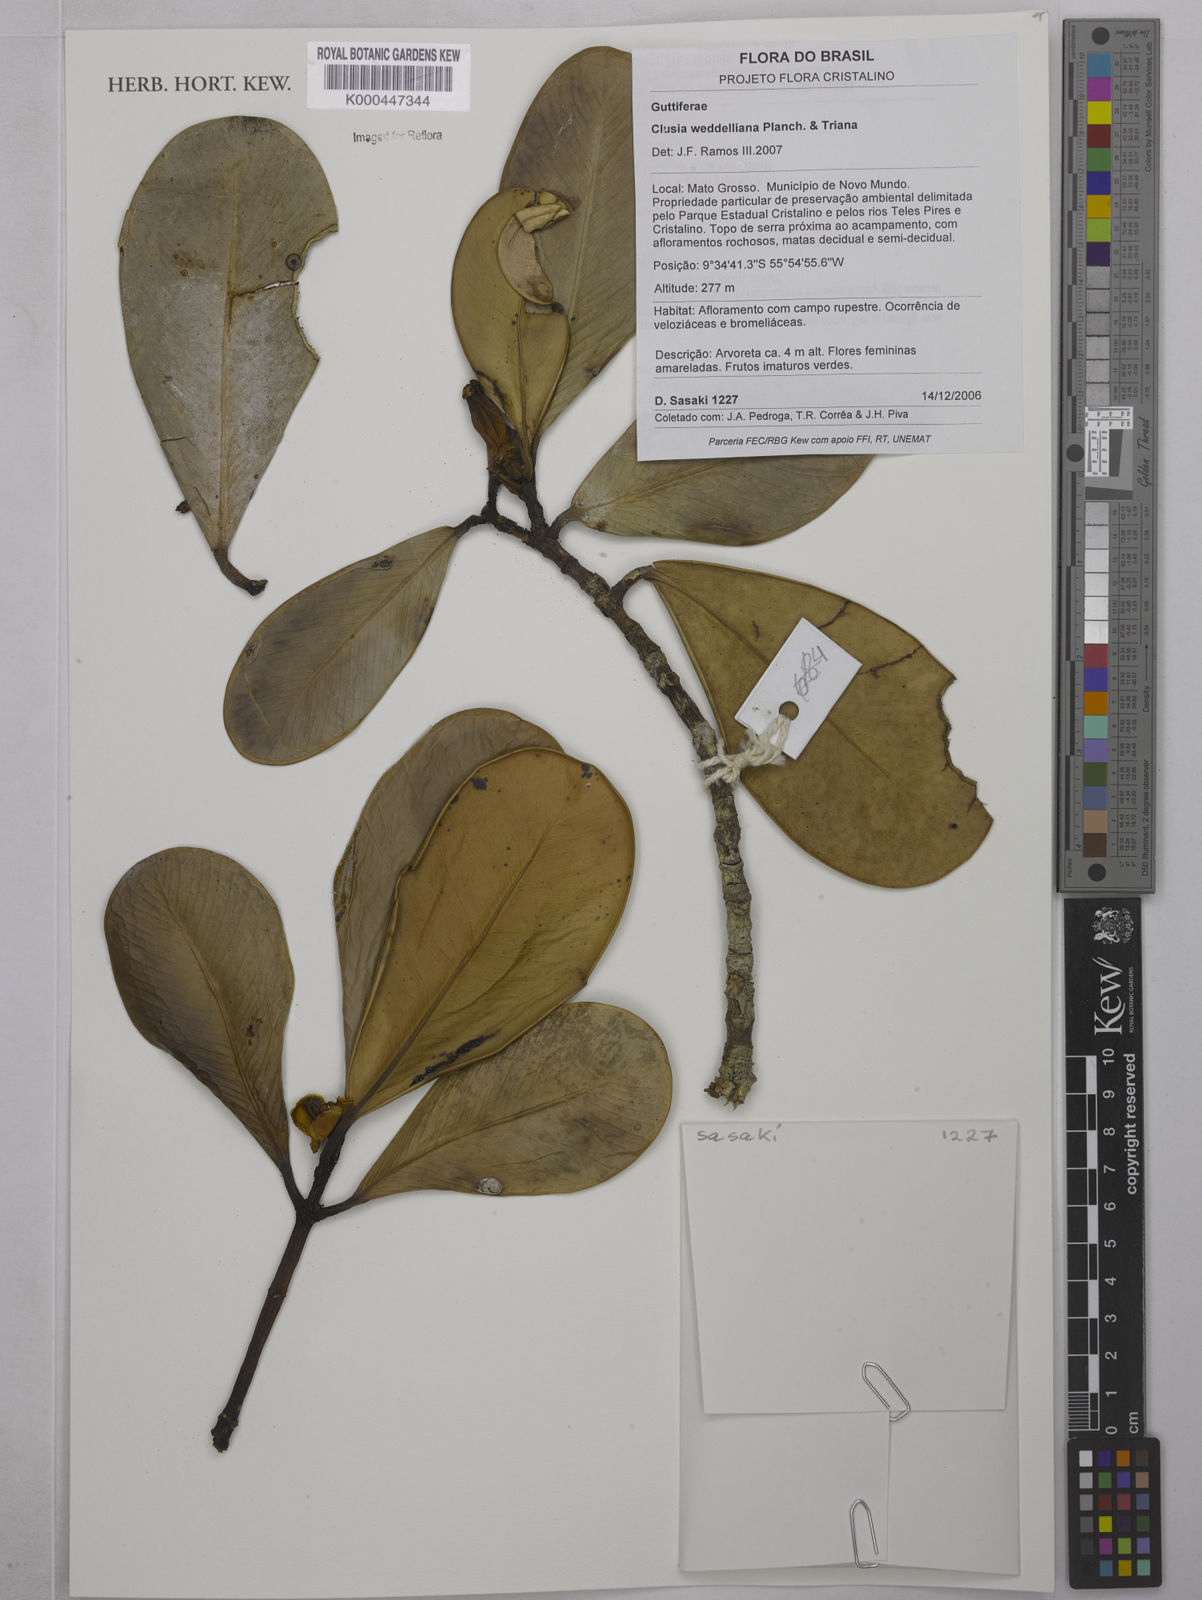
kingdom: Plantae
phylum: Tracheophyta
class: Magnoliopsida
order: Malpighiales
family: Clusiaceae
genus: Clusia
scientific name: Clusia weddelliana
